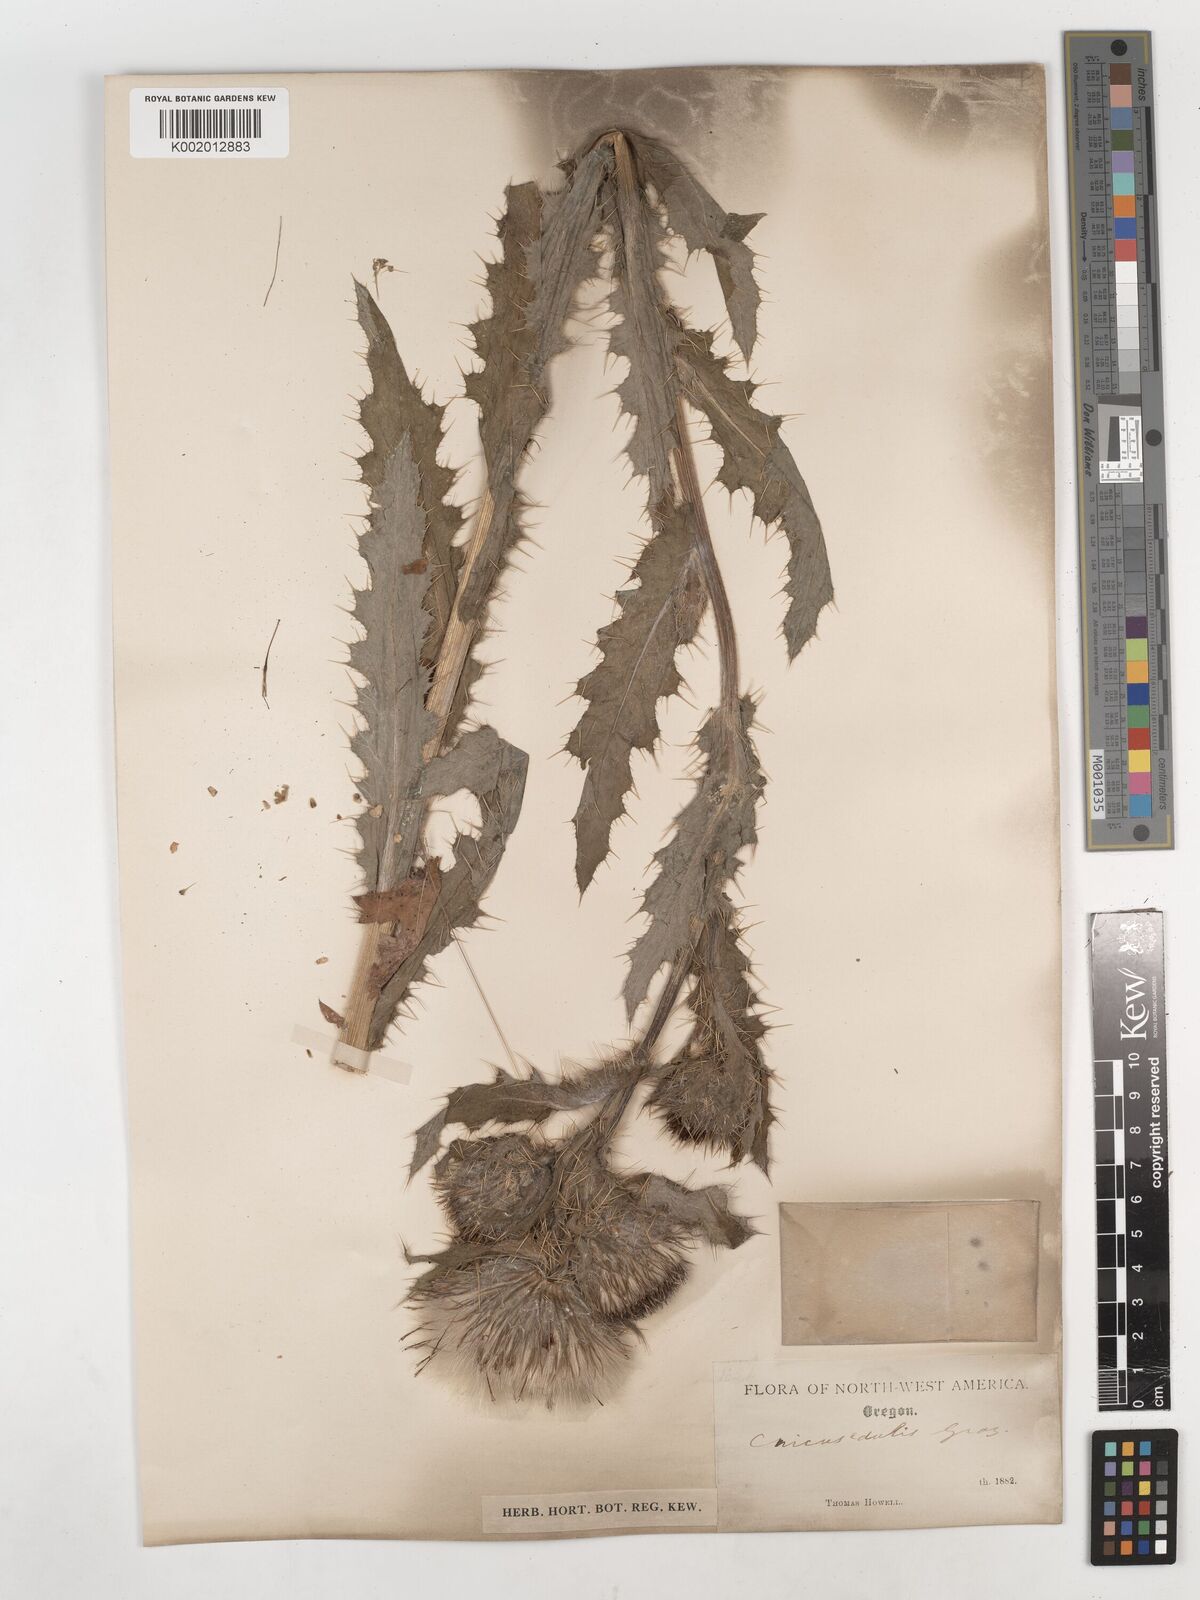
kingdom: Plantae
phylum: Tracheophyta
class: Magnoliopsida
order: Asterales
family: Asteraceae
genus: Cirsium
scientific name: Cirsium edule
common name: Indian thistle
